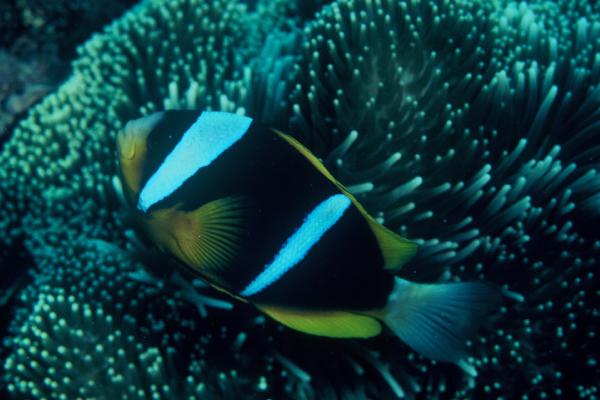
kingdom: Animalia
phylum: Chordata
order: Perciformes
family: Pomacentridae
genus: Amphiprion
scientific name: Amphiprion allardi
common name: Allard's anemonefish
